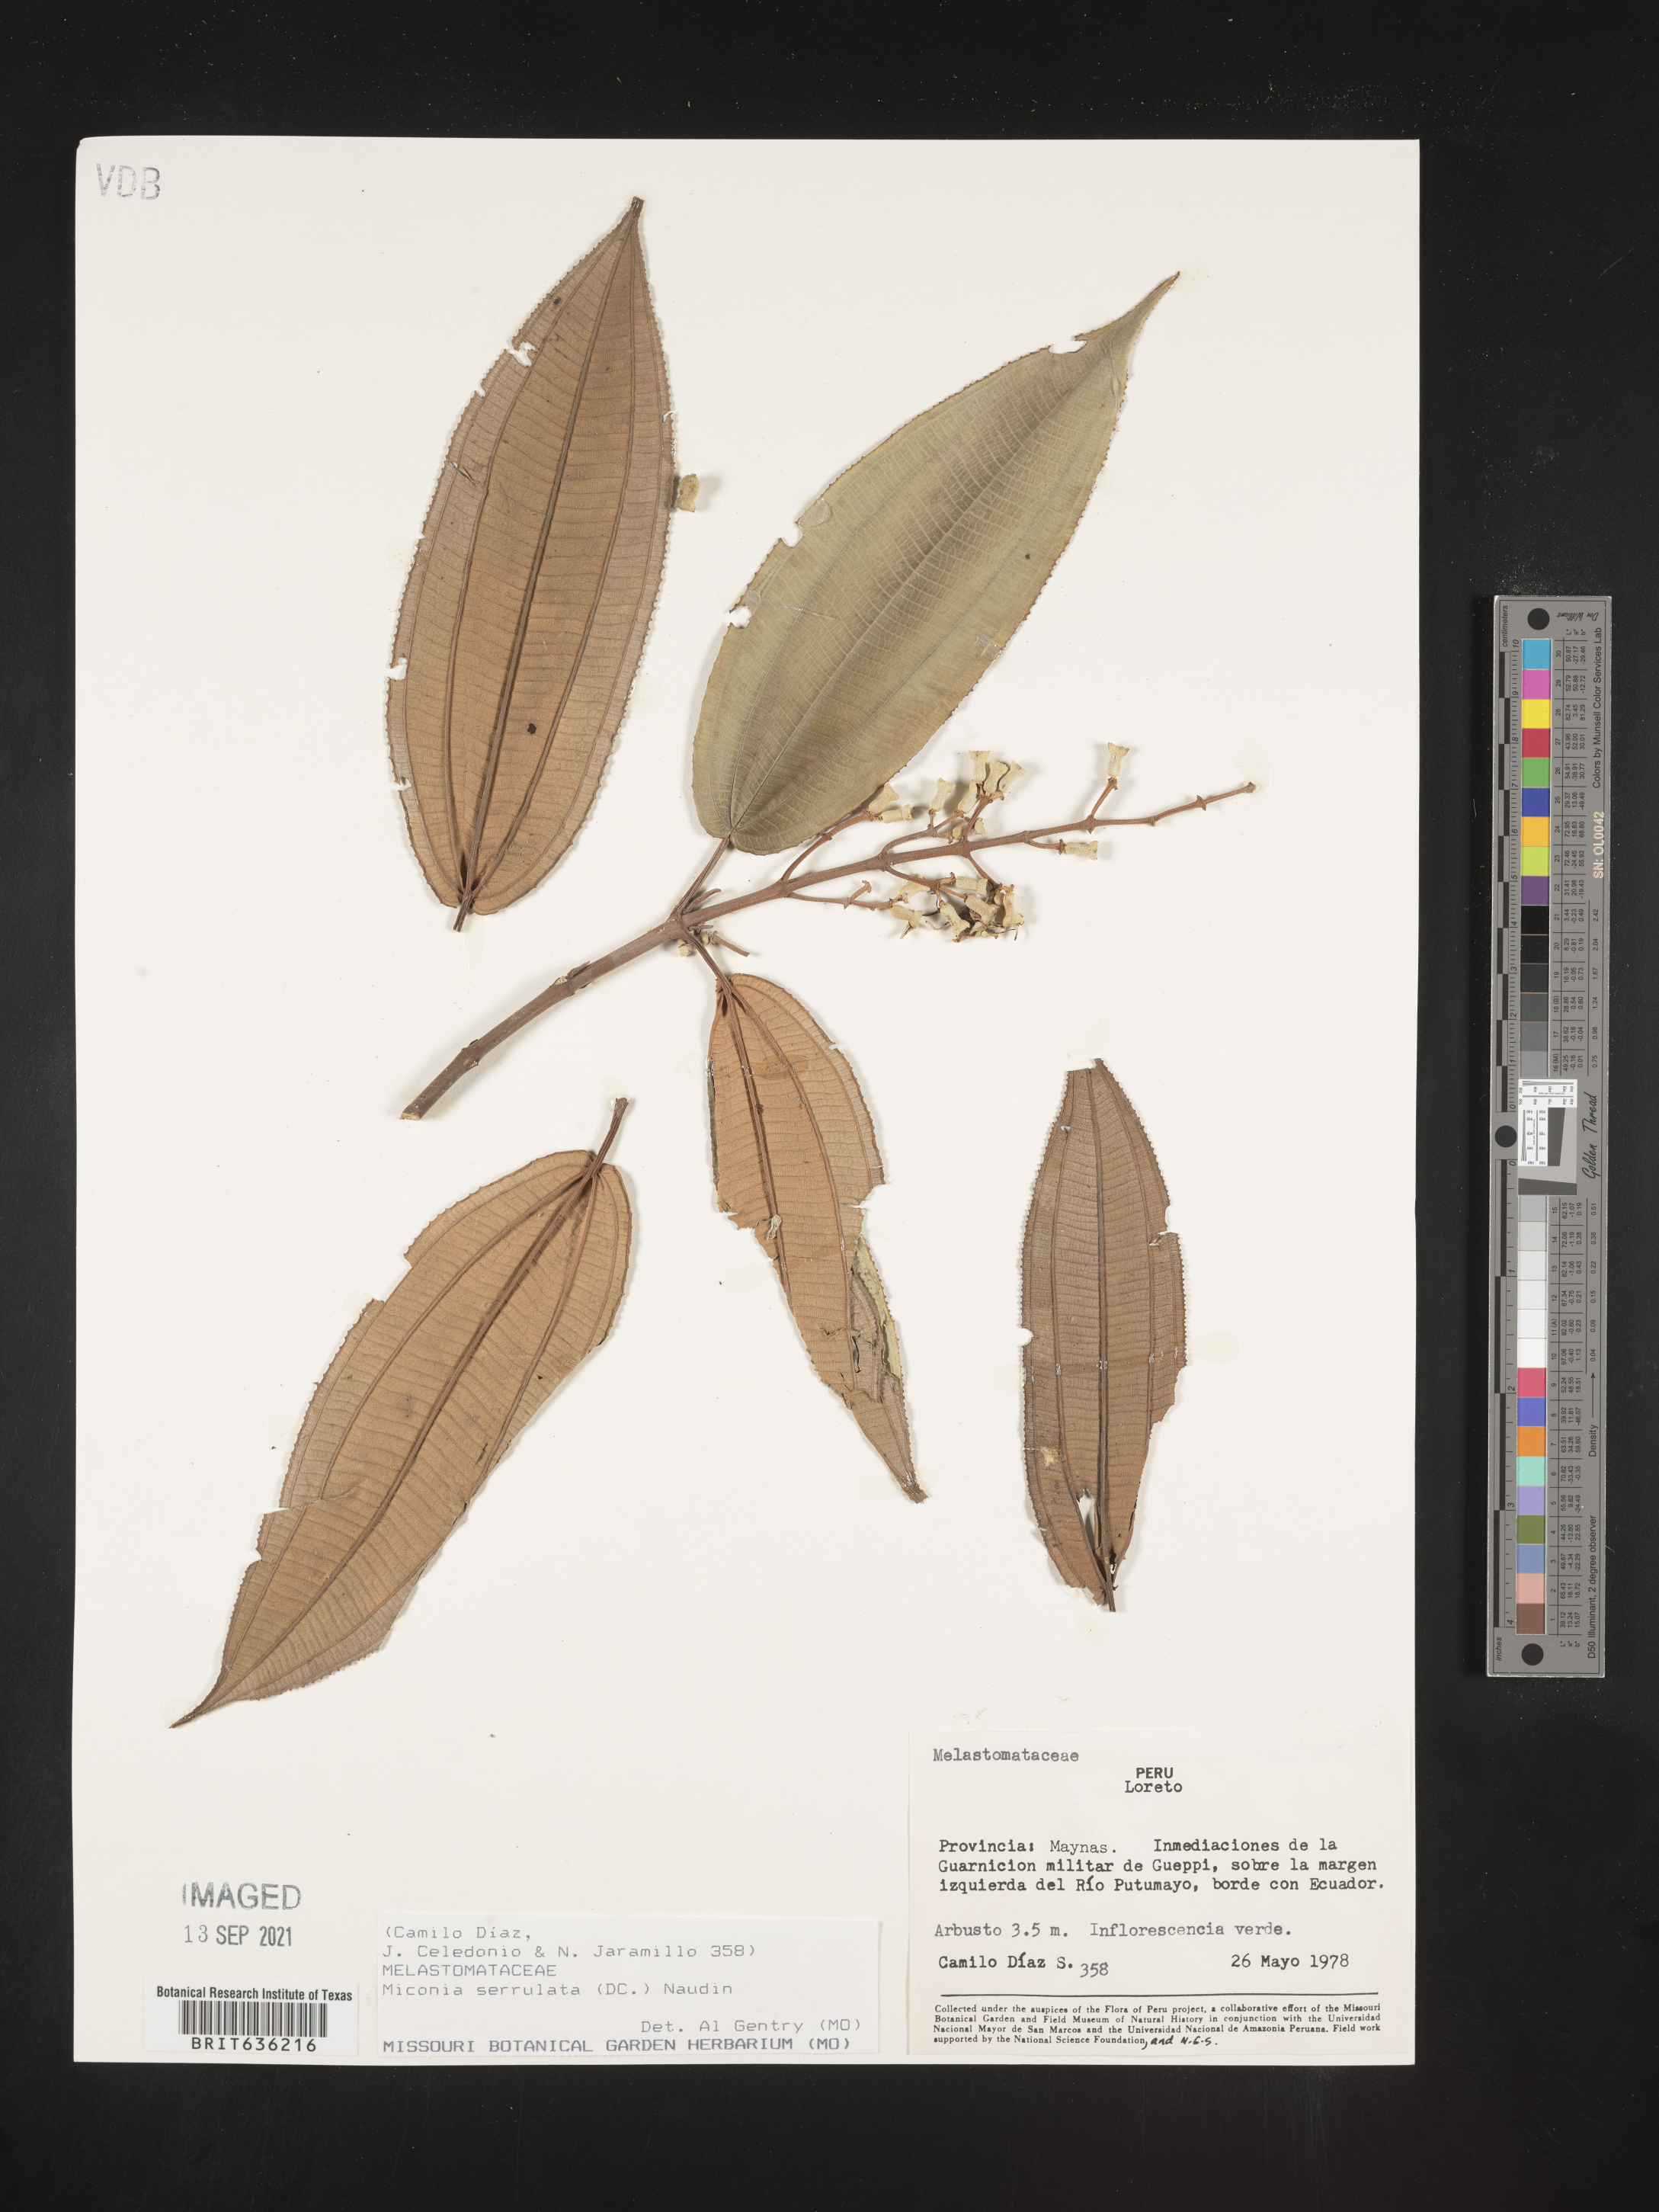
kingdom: Plantae
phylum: Tracheophyta
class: Magnoliopsida
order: Myrtales
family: Melastomataceae
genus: Miconia
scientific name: Miconia
